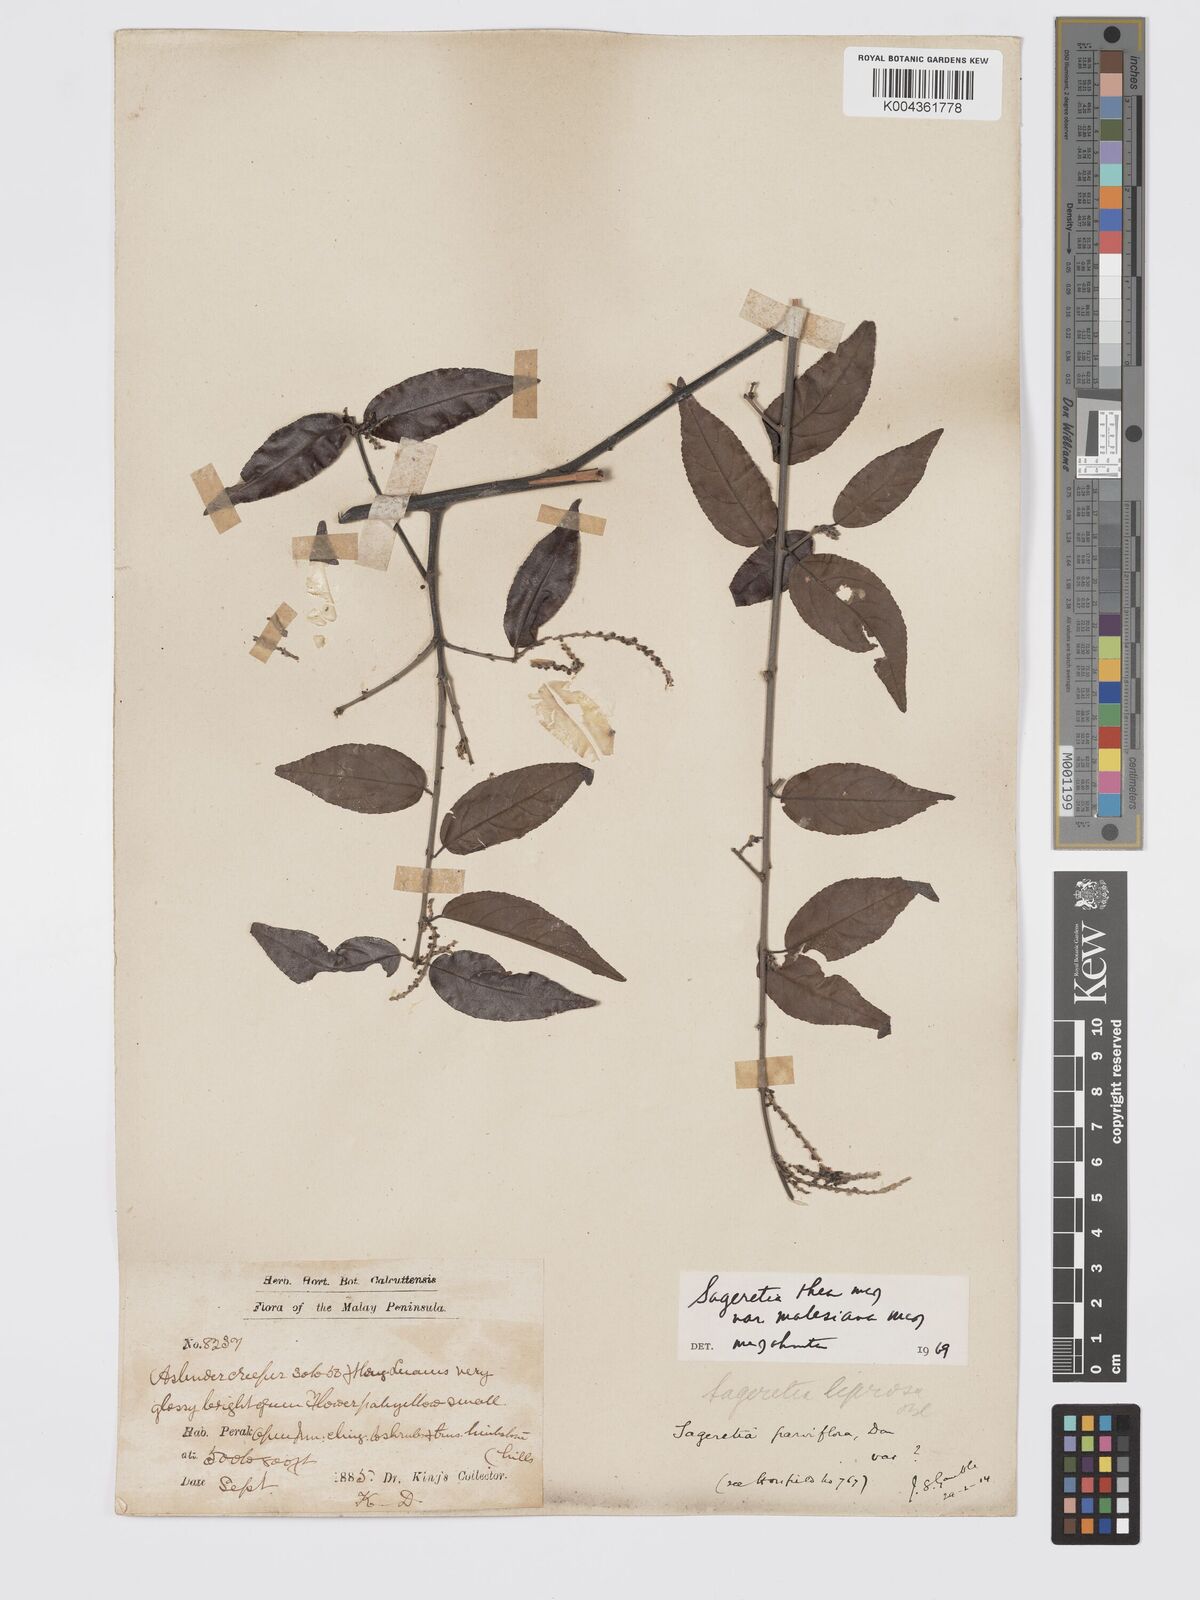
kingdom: Plantae
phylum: Tracheophyta
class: Magnoliopsida
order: Rosales
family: Rhamnaceae
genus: Sageretia
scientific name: Sageretia parviflora
